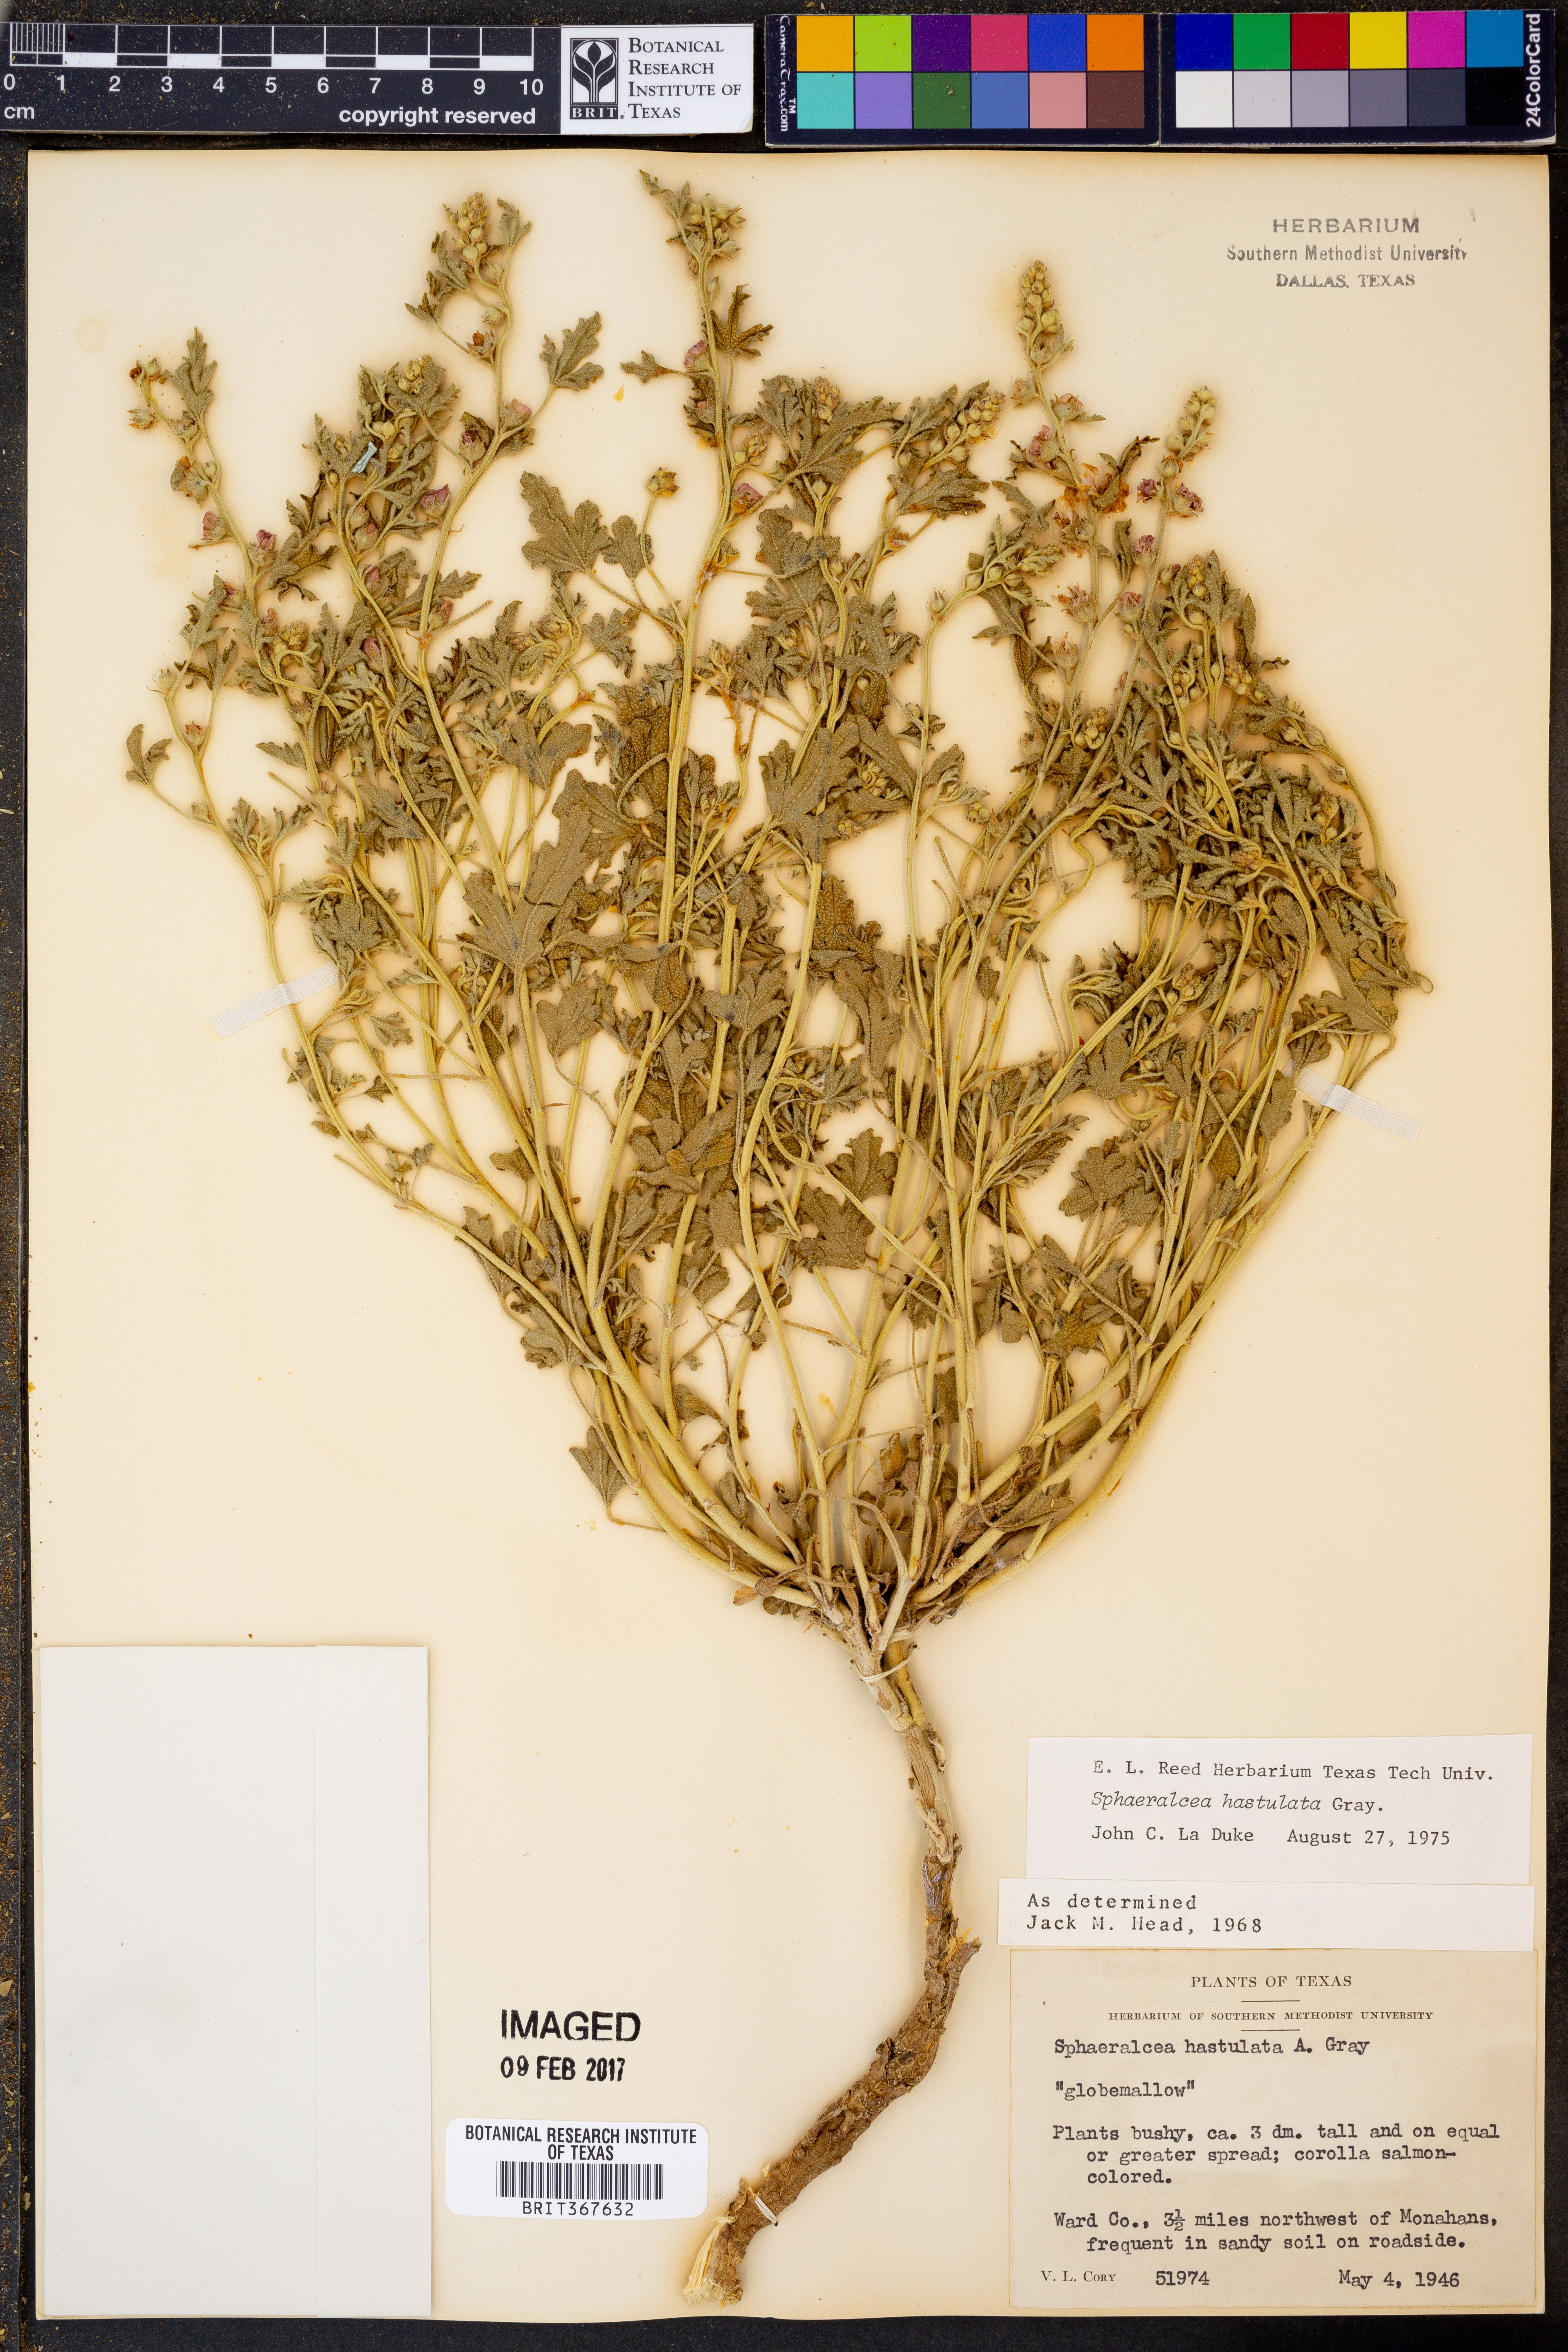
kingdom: Plantae
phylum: Tracheophyta
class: Magnoliopsida
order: Malvales
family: Malvaceae
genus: Sphaeralcea
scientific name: Sphaeralcea hastulata
